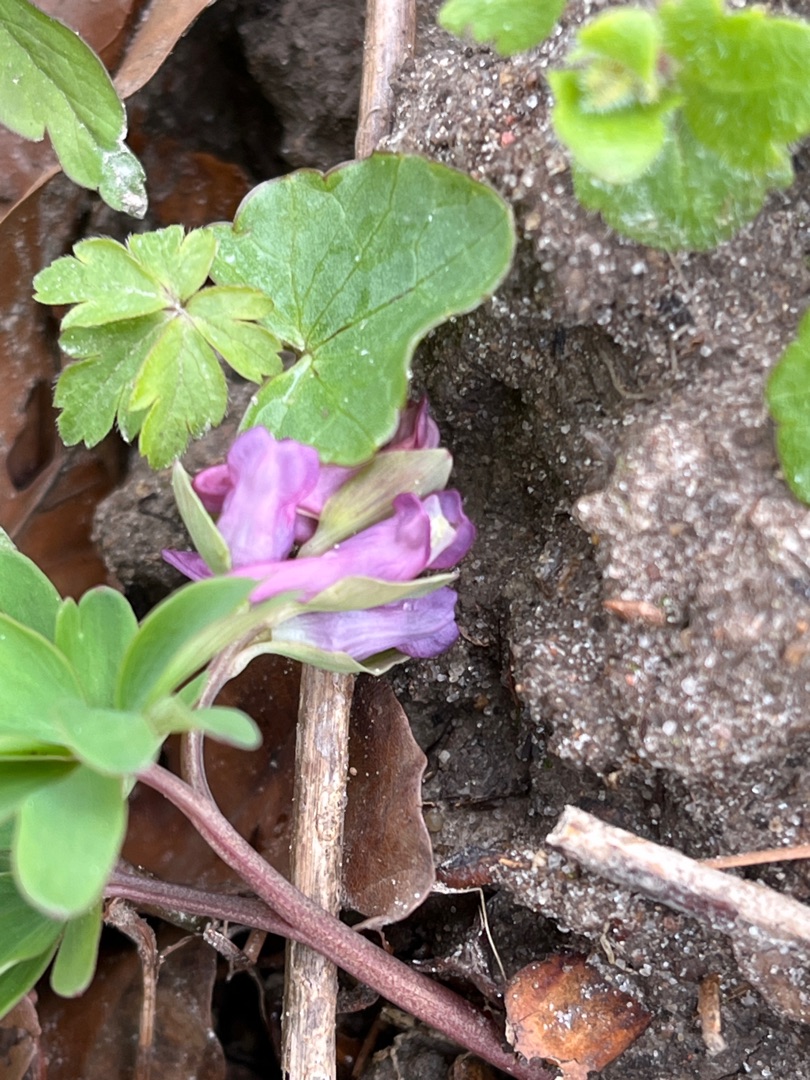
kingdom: Plantae
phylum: Tracheophyta
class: Magnoliopsida
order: Ranunculales
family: Papaveraceae
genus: Corydalis
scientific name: Corydalis intermedia
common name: Liden lærkespore
